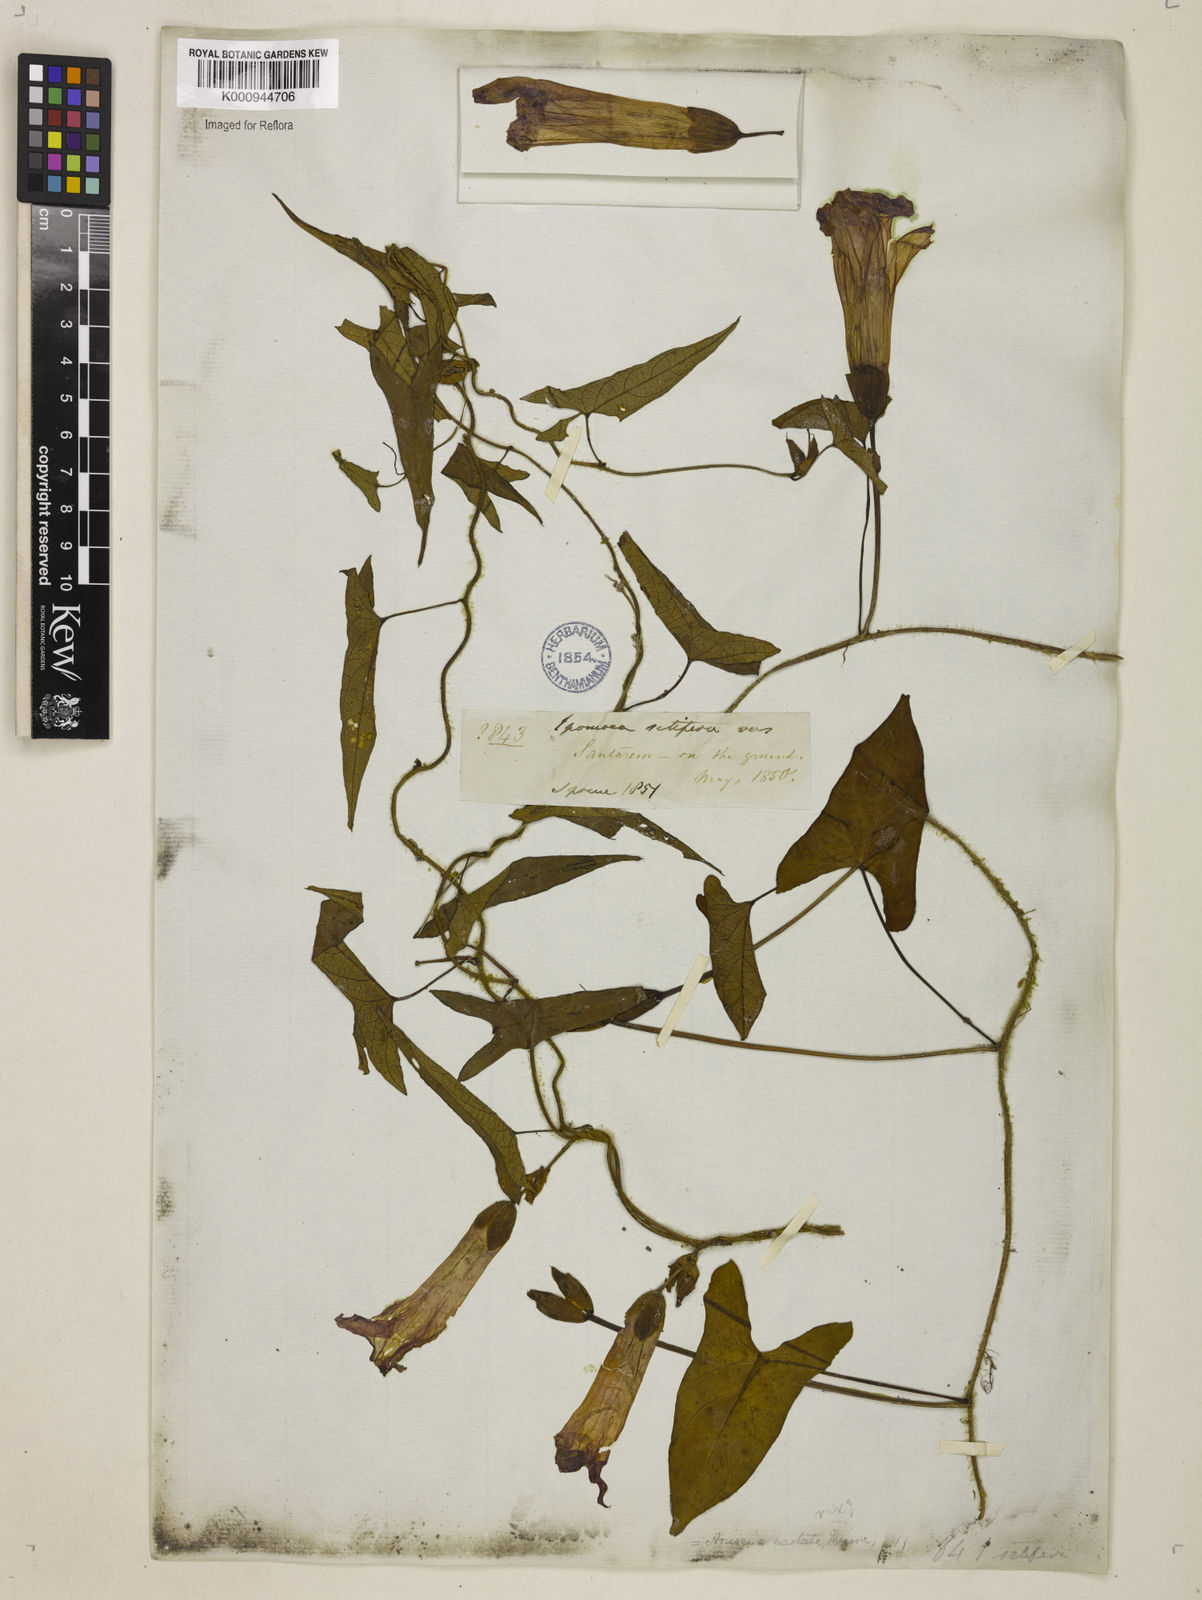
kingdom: Plantae
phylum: Tracheophyta
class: Magnoliopsida
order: Solanales
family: Convolvulaceae
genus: Ipomoea
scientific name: Ipomoea setifera
